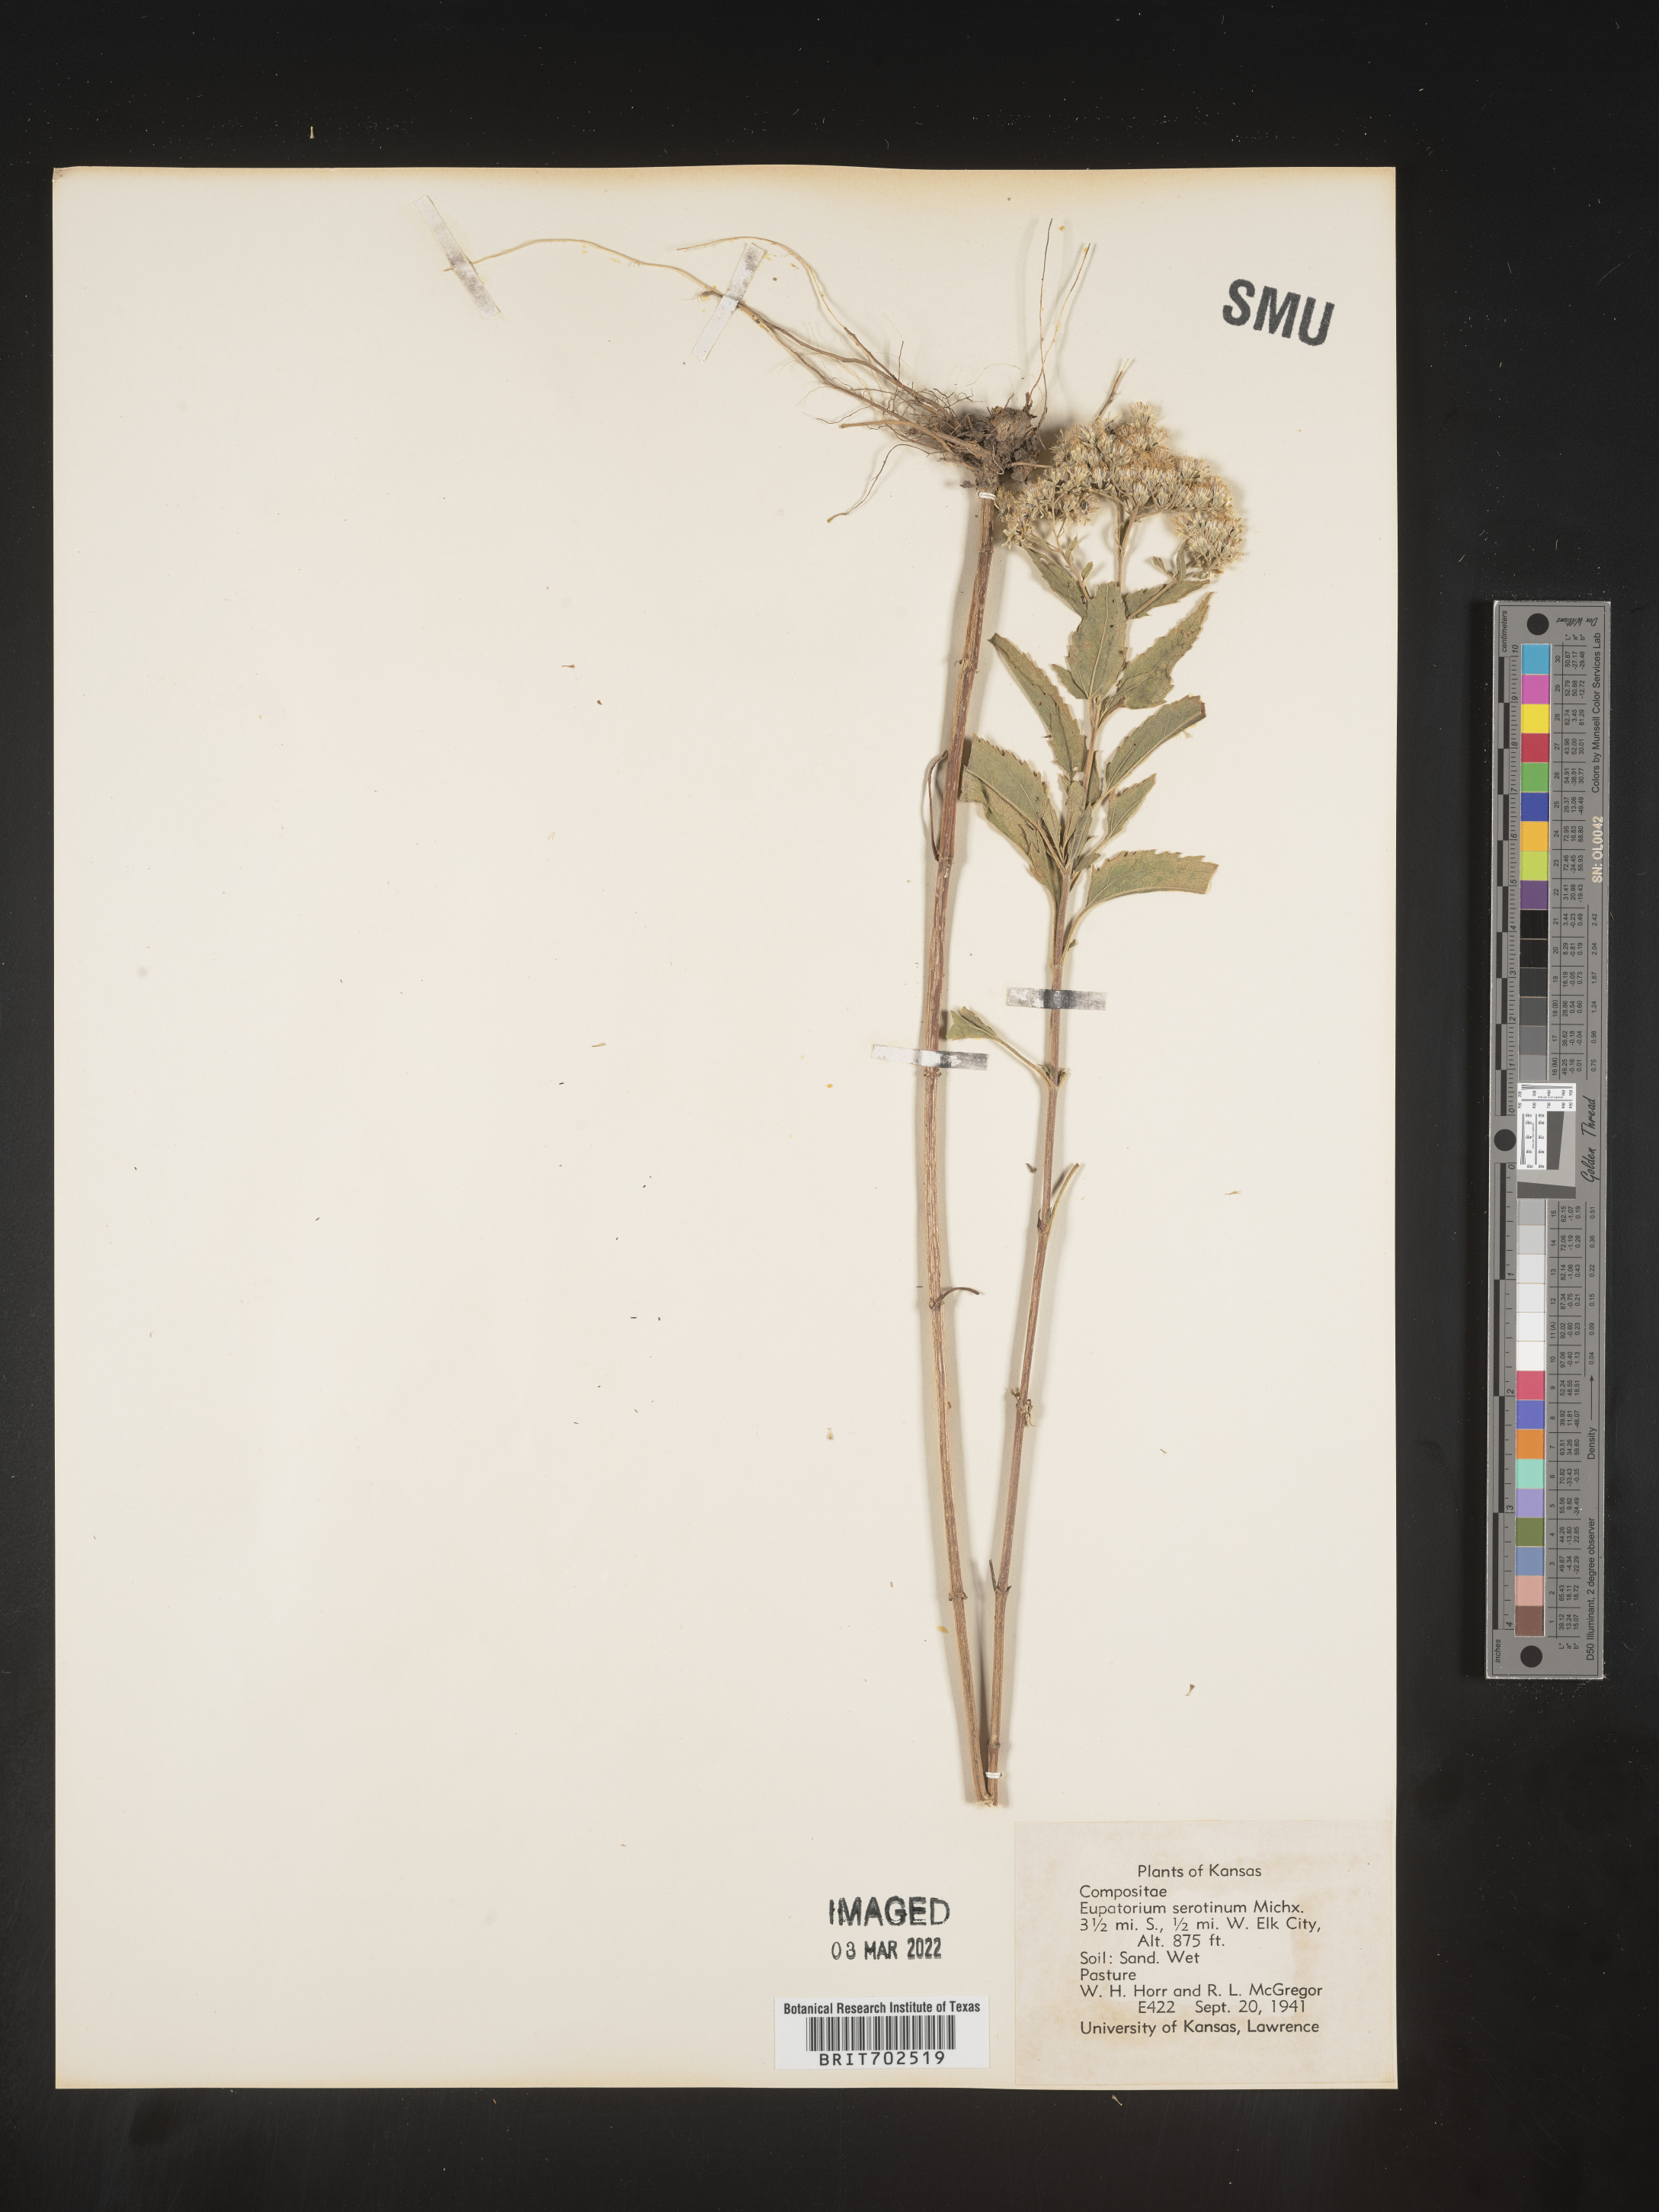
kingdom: Plantae
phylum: Tracheophyta
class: Magnoliopsida
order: Asterales
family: Asteraceae
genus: Eupatorium
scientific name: Eupatorium serotinum
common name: Late boneset
